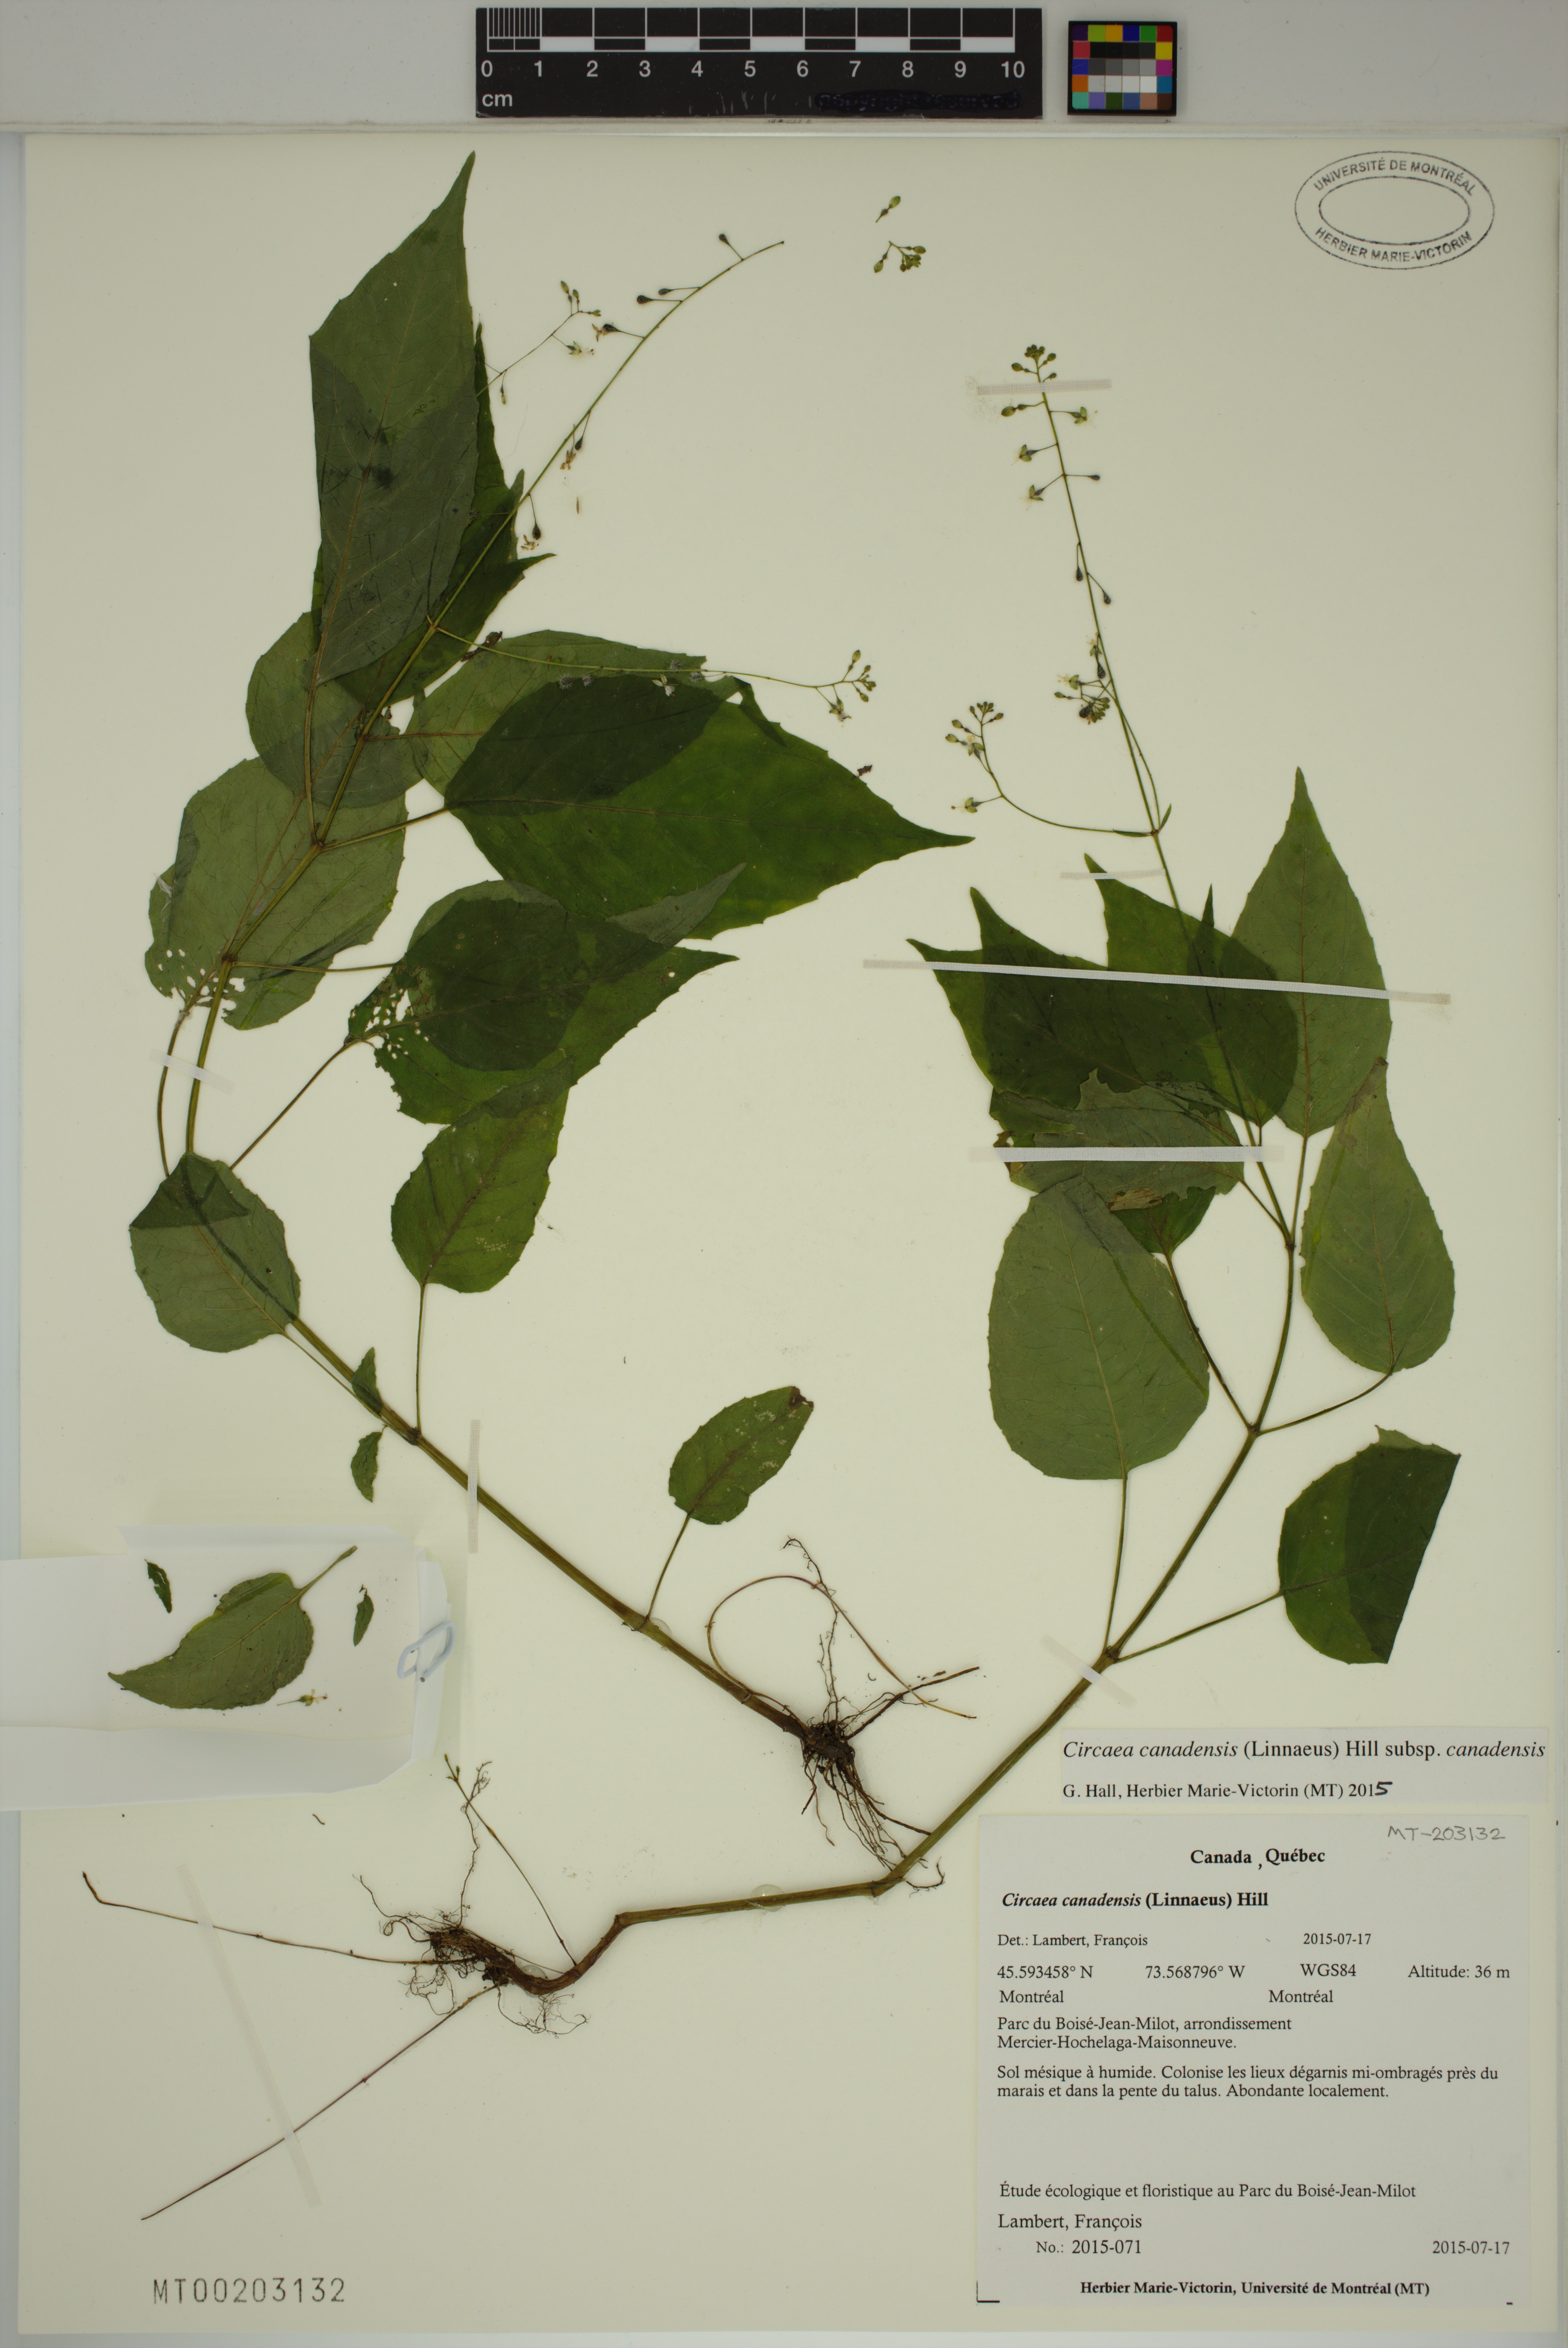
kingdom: Plantae
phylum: Tracheophyta
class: Magnoliopsida
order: Myrtales
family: Onagraceae
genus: Circaea
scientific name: Circaea canadensis
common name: Broad-leaved enchanter's nightshade
